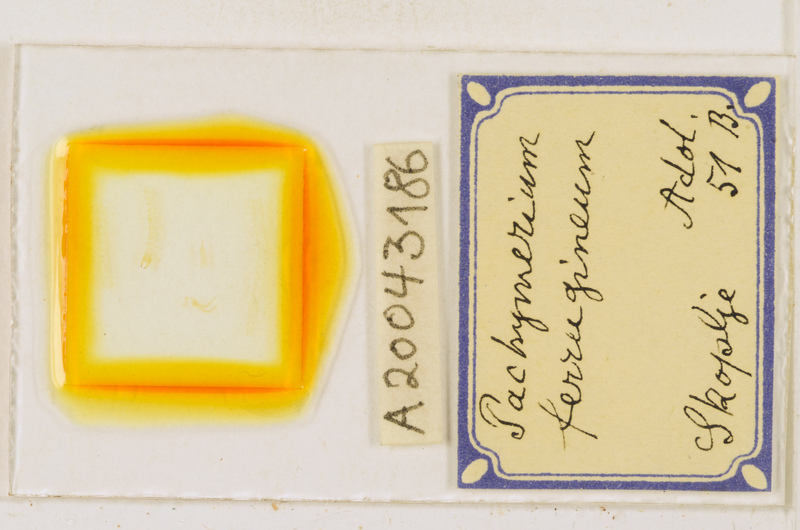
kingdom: Animalia
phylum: Arthropoda
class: Chilopoda
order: Geophilomorpha
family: Geophilidae
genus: Pachymerium
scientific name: Pachymerium ferrugineum
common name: Centipede
